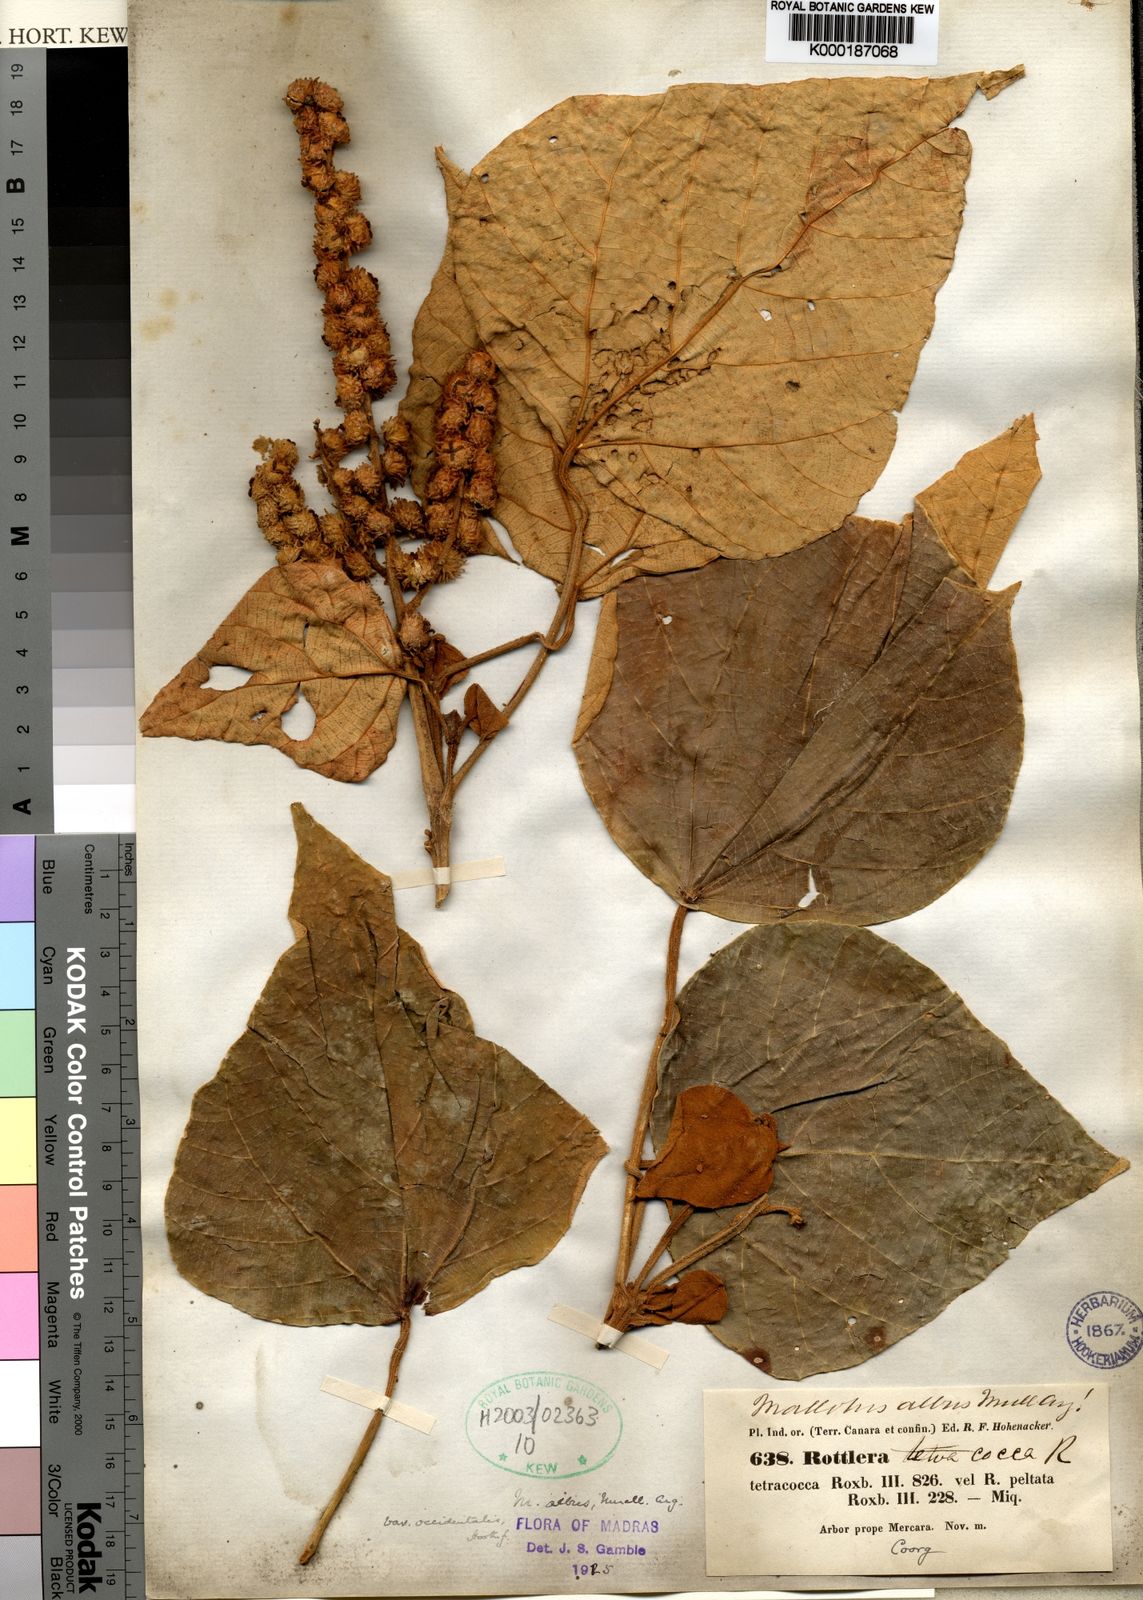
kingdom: Plantae
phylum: Tracheophyta
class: Magnoliopsida
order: Malpighiales
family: Euphorbiaceae
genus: Mallotus
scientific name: Mallotus tetracoccus
